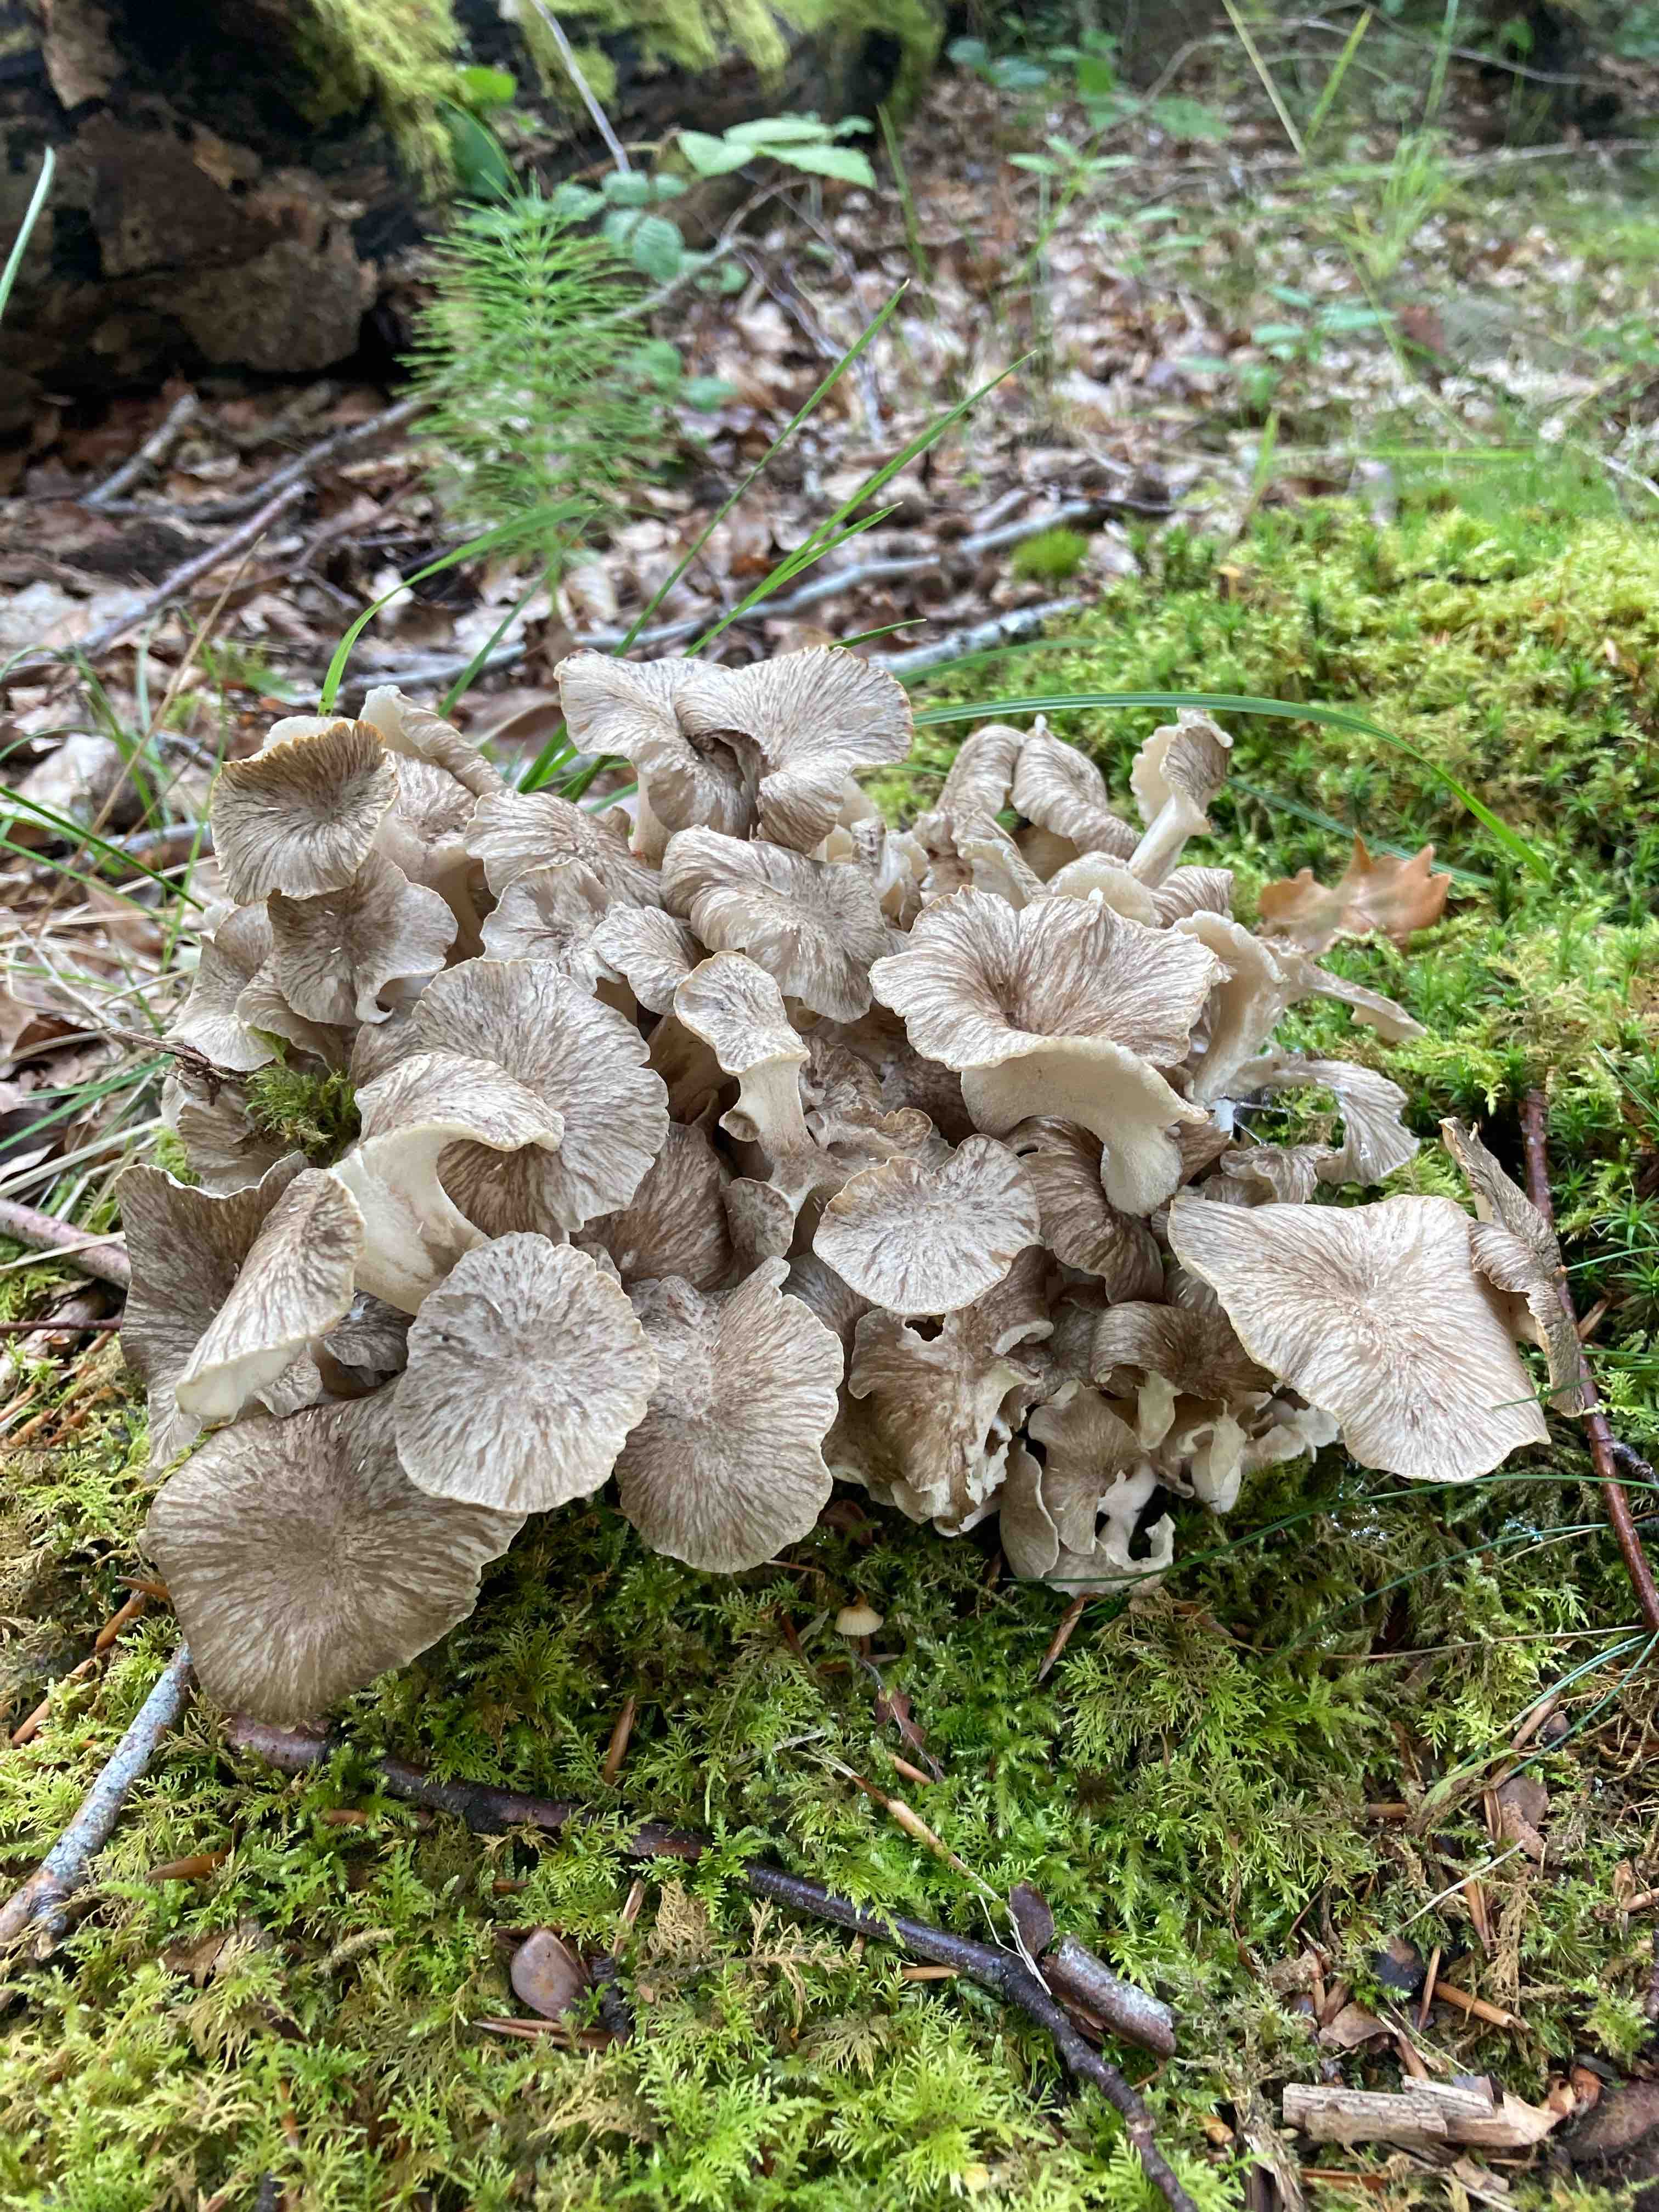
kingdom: Fungi
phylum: Basidiomycota
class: Agaricomycetes
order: Polyporales
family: Polyporaceae
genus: Polyporus
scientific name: Polyporus umbellatus
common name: skærmformet stilkporesvamp
